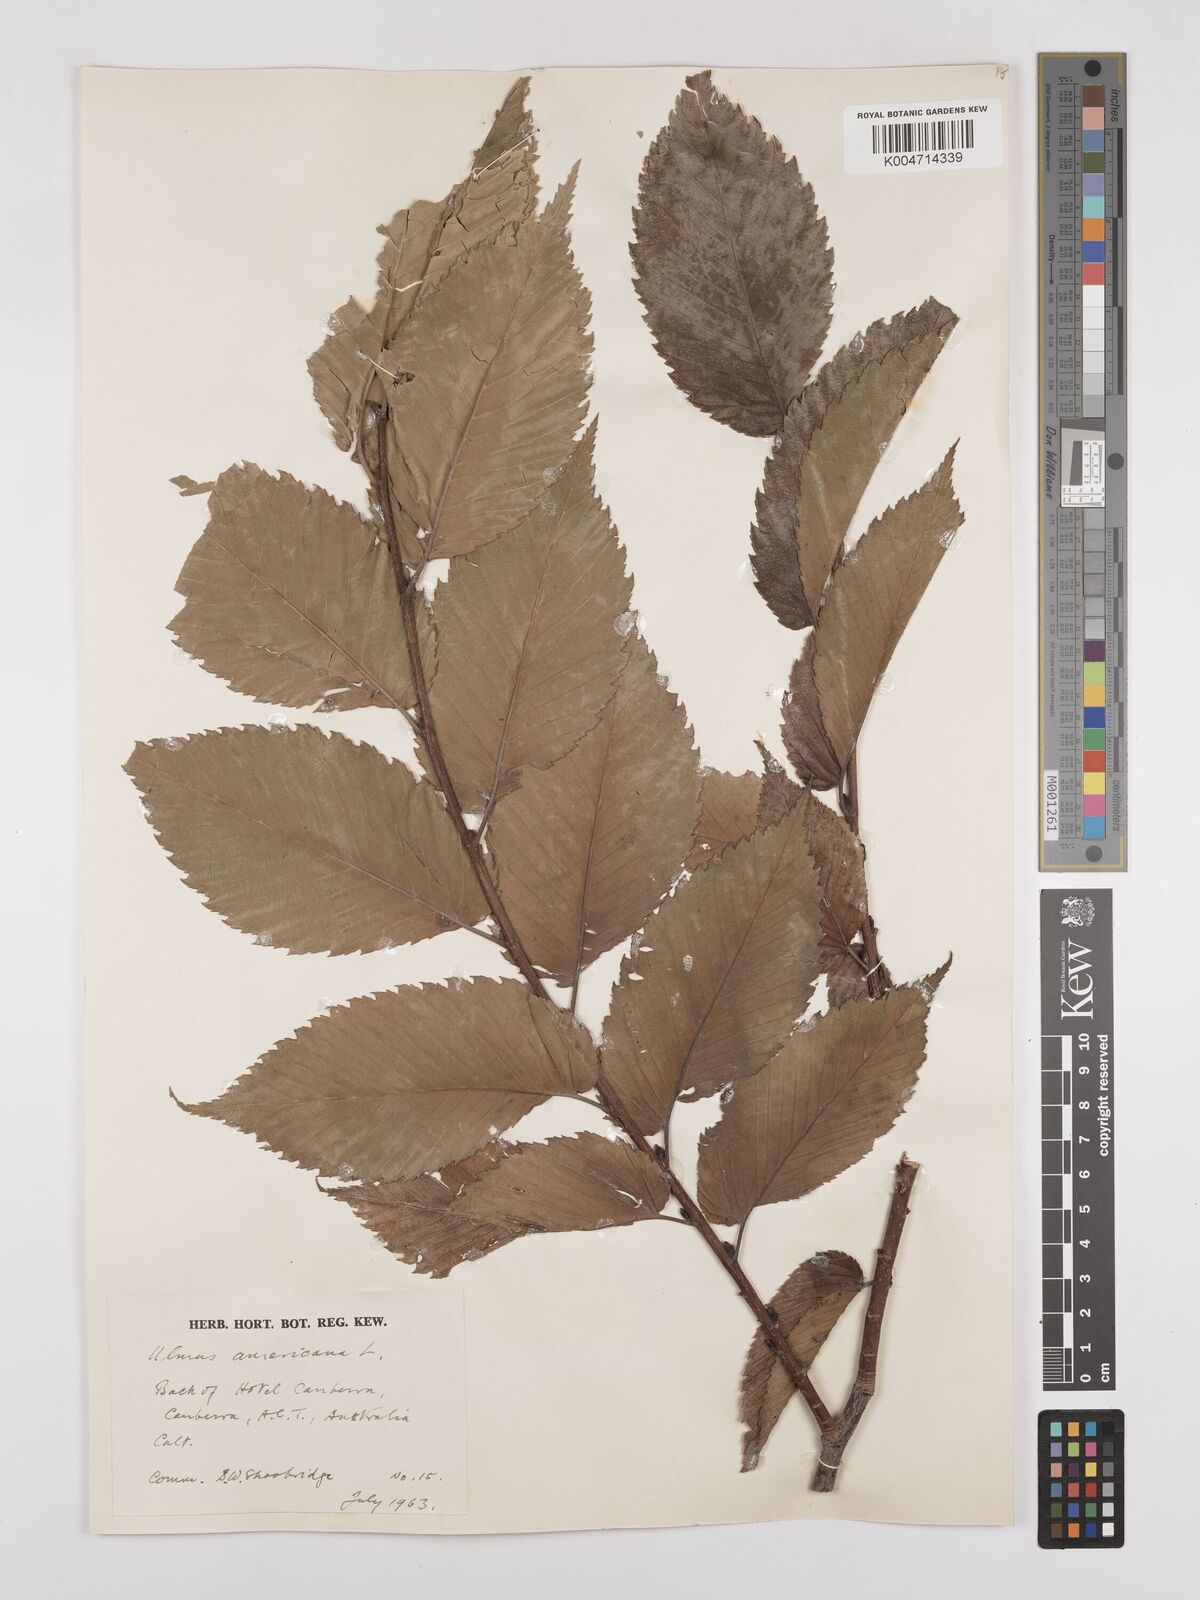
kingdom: Plantae
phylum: Tracheophyta
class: Magnoliopsida
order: Rosales
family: Ulmaceae
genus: Ulmus
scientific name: Ulmus americana
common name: American elm
